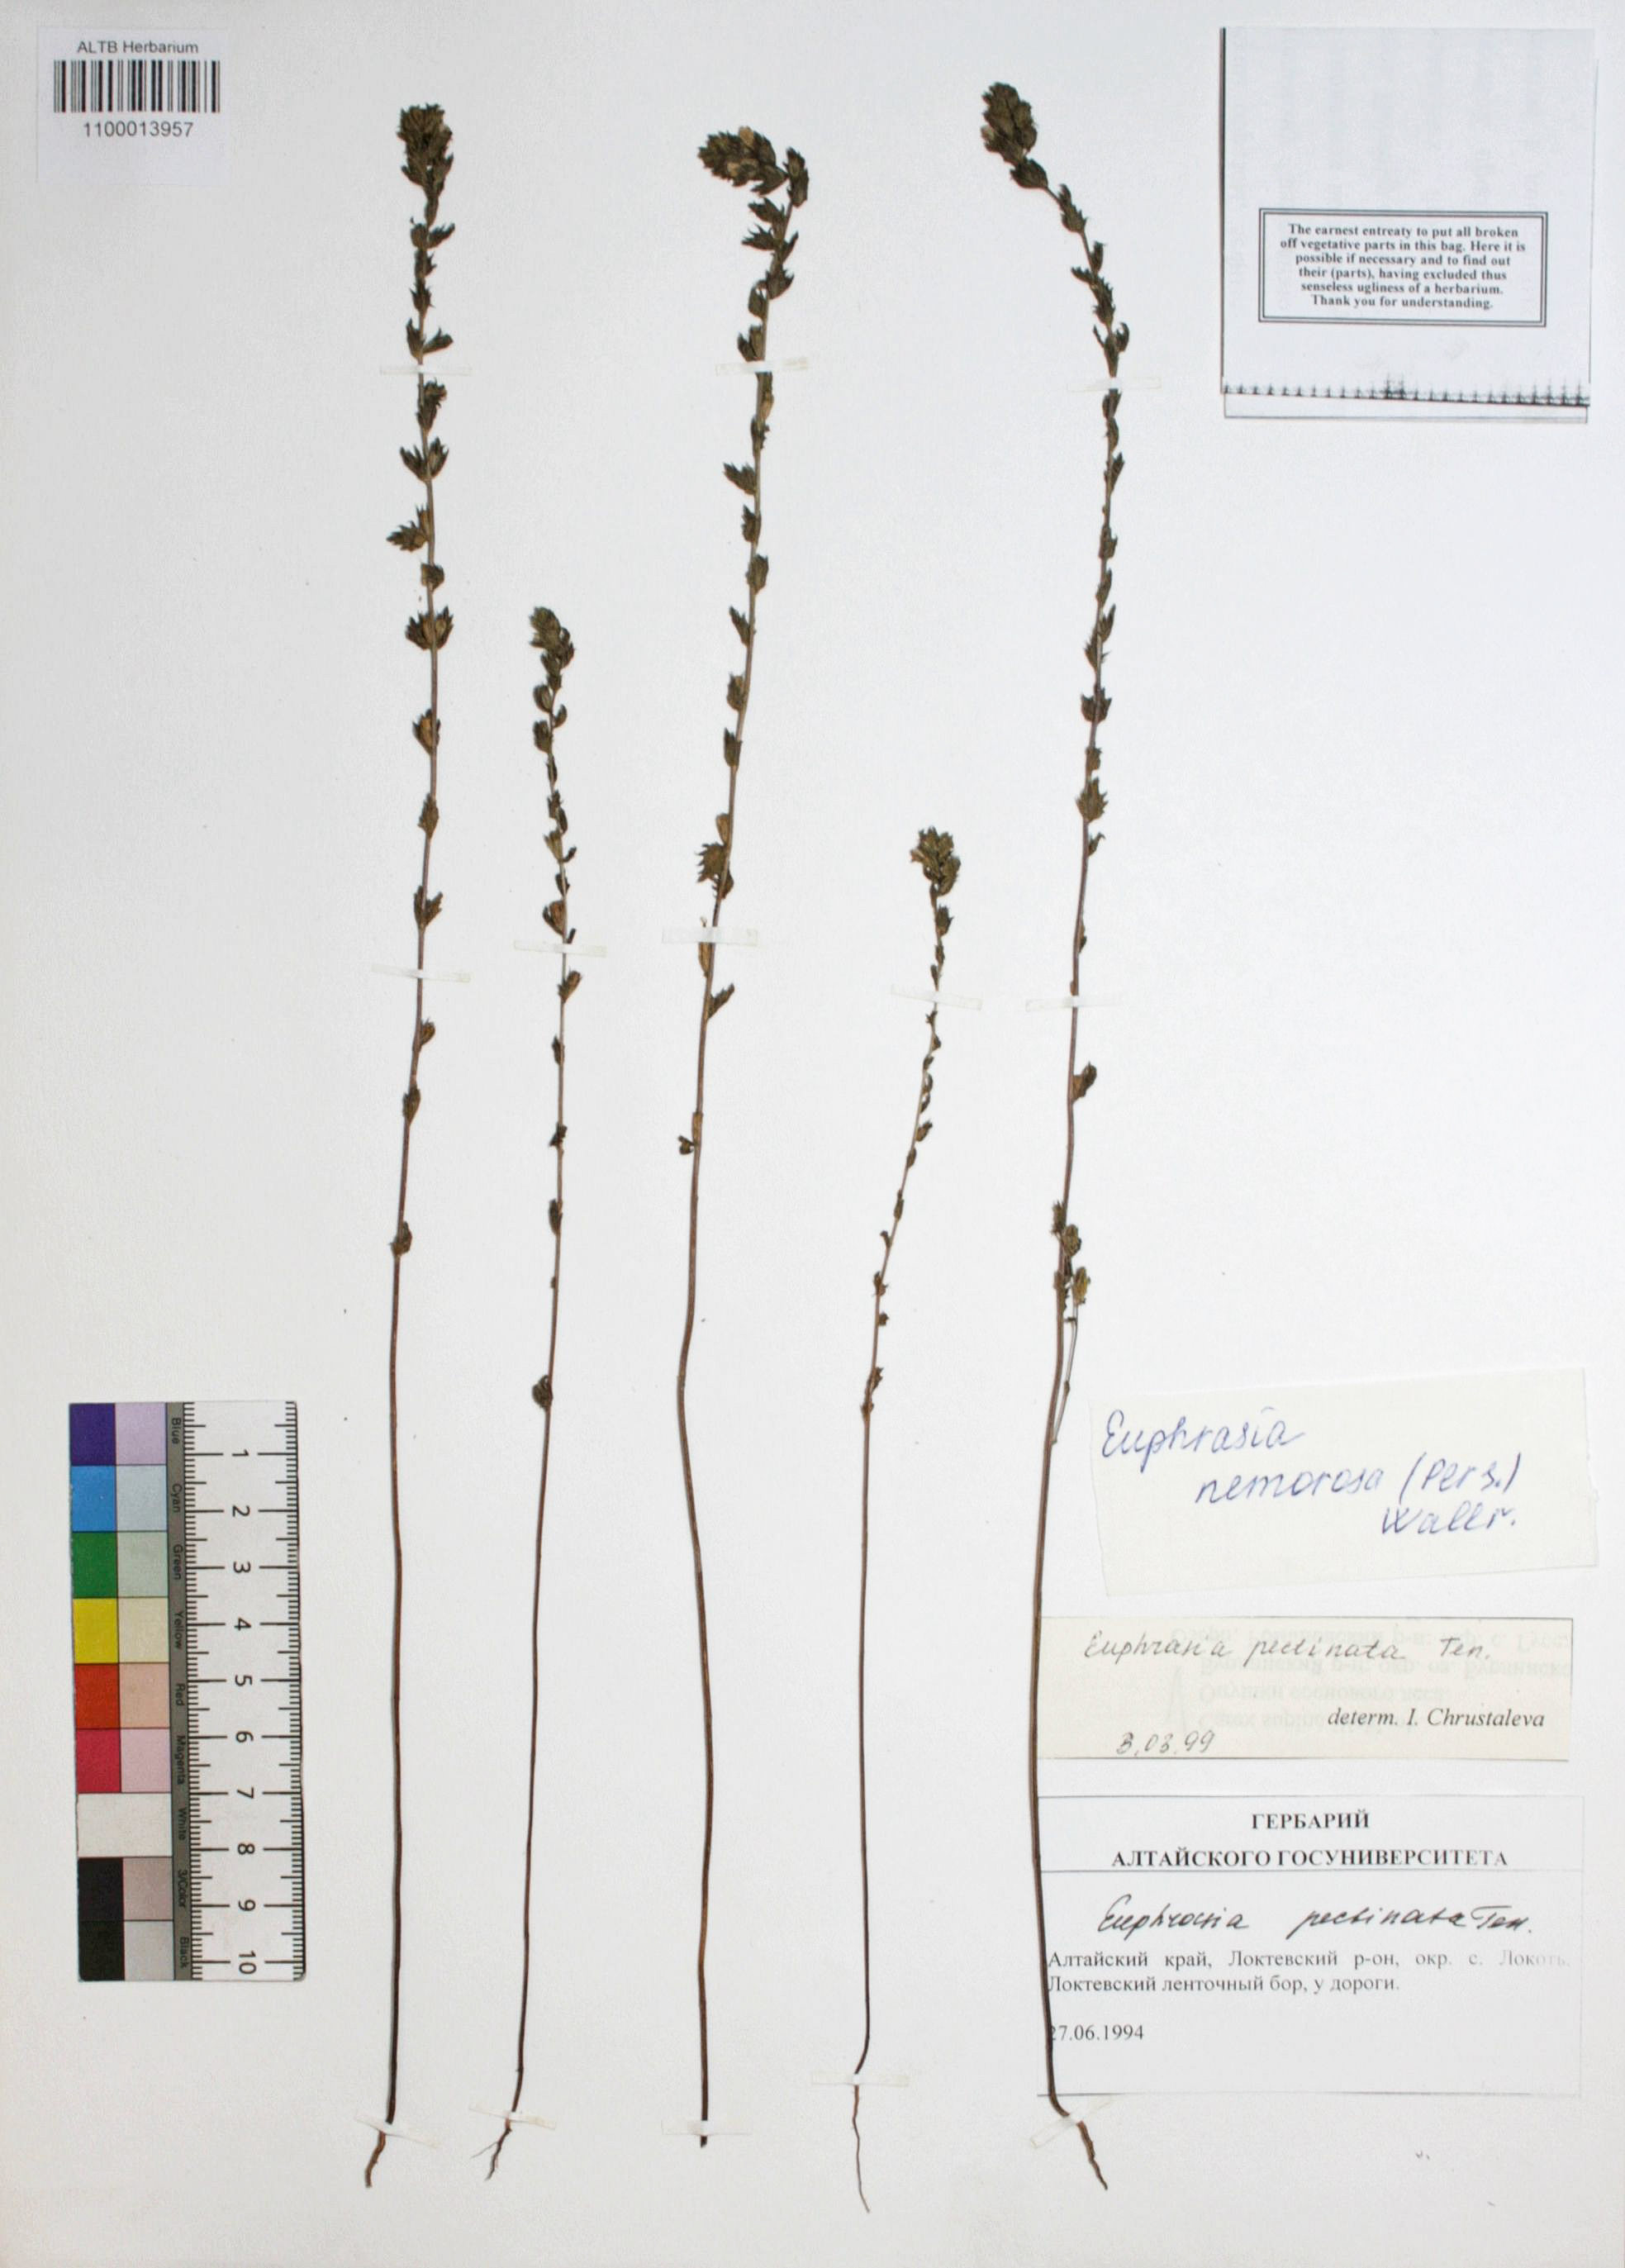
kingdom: Plantae
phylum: Tracheophyta
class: Magnoliopsida
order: Lamiales
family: Orobanchaceae
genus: Euphrasia
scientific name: Euphrasia nemorosa
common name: Common eyebright
